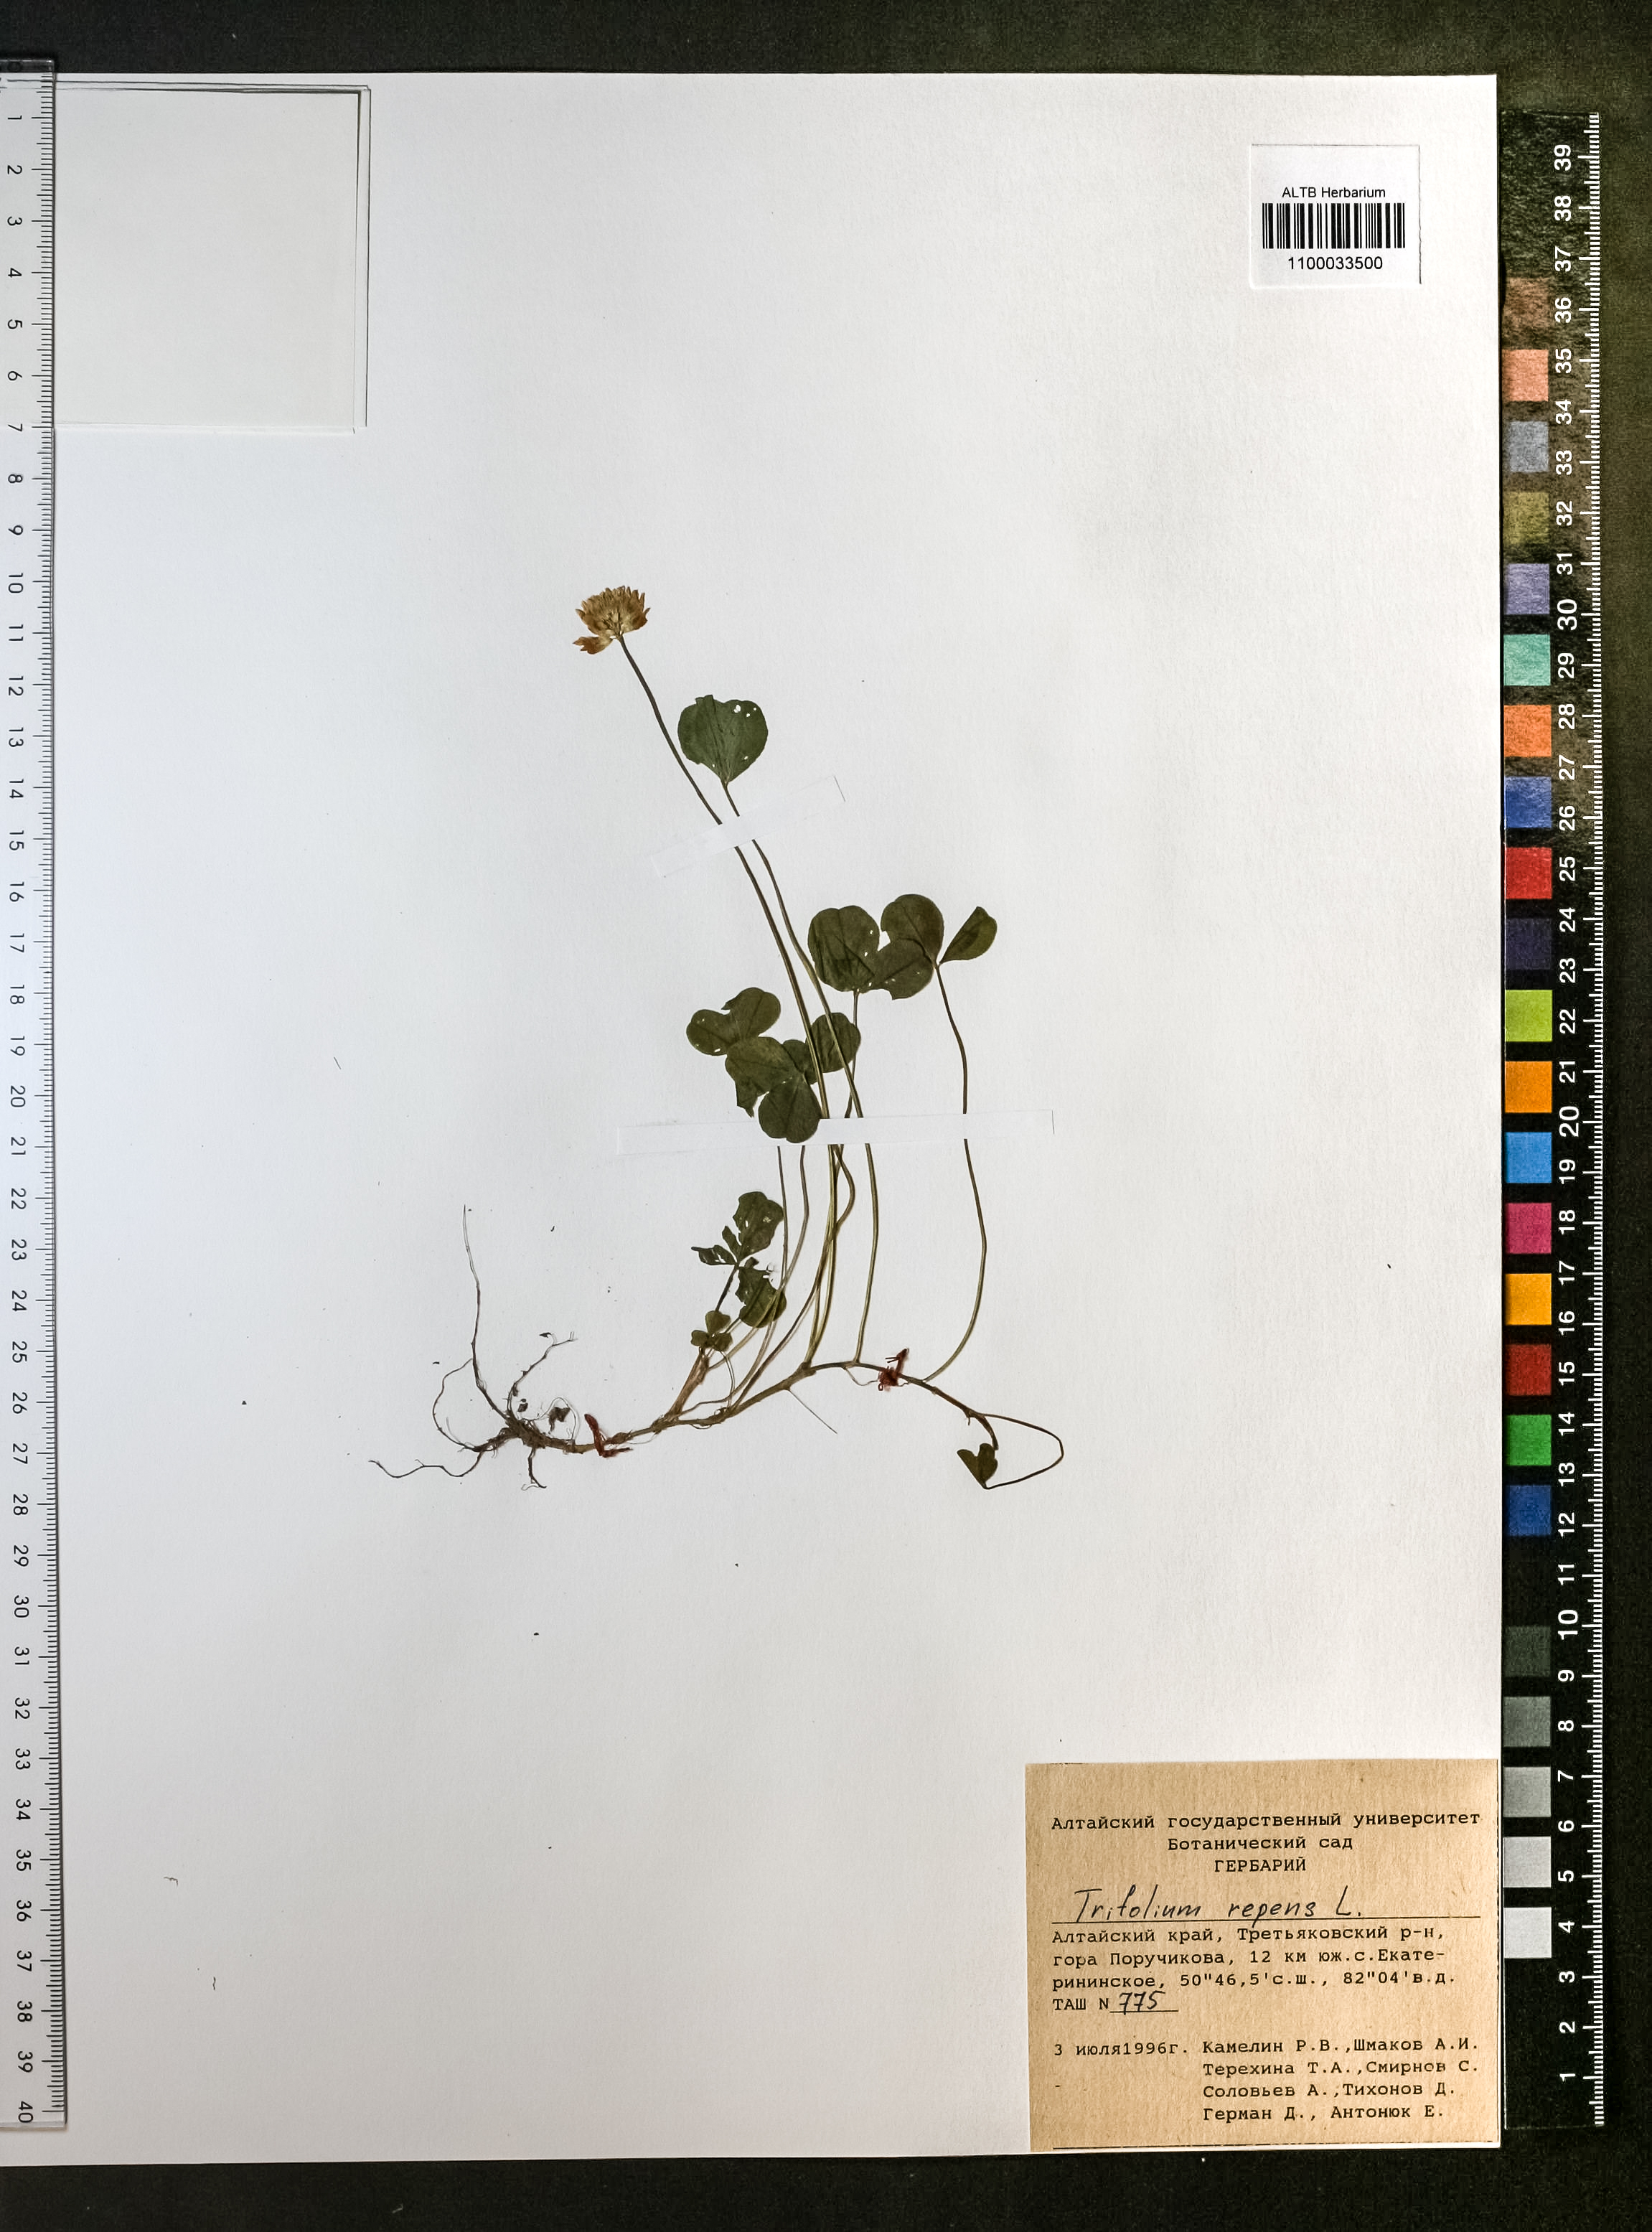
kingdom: Plantae
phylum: Tracheophyta
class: Magnoliopsida
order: Fabales
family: Fabaceae
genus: Trifolium
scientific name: Trifolium repens
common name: White clover
